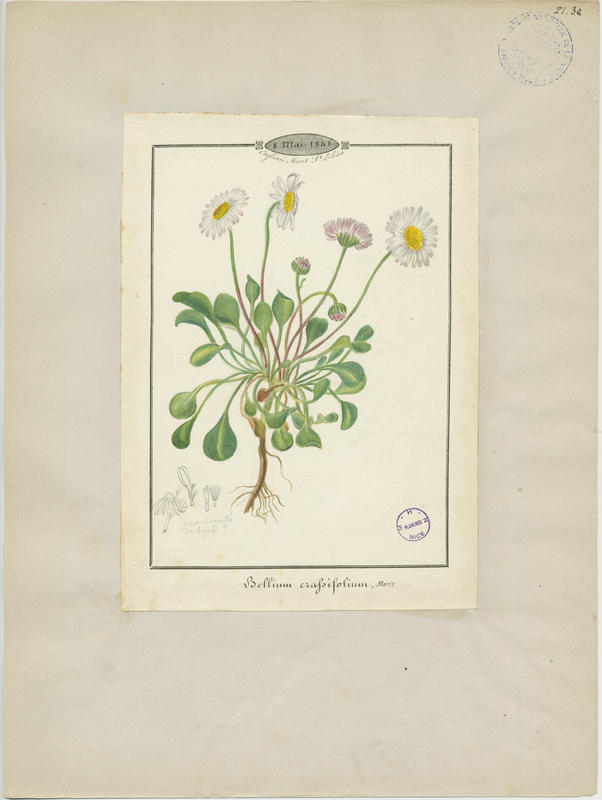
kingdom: Plantae
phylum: Tracheophyta
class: Magnoliopsida
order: Asterales
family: Asteraceae
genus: Bellium
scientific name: Bellium crassifolium
